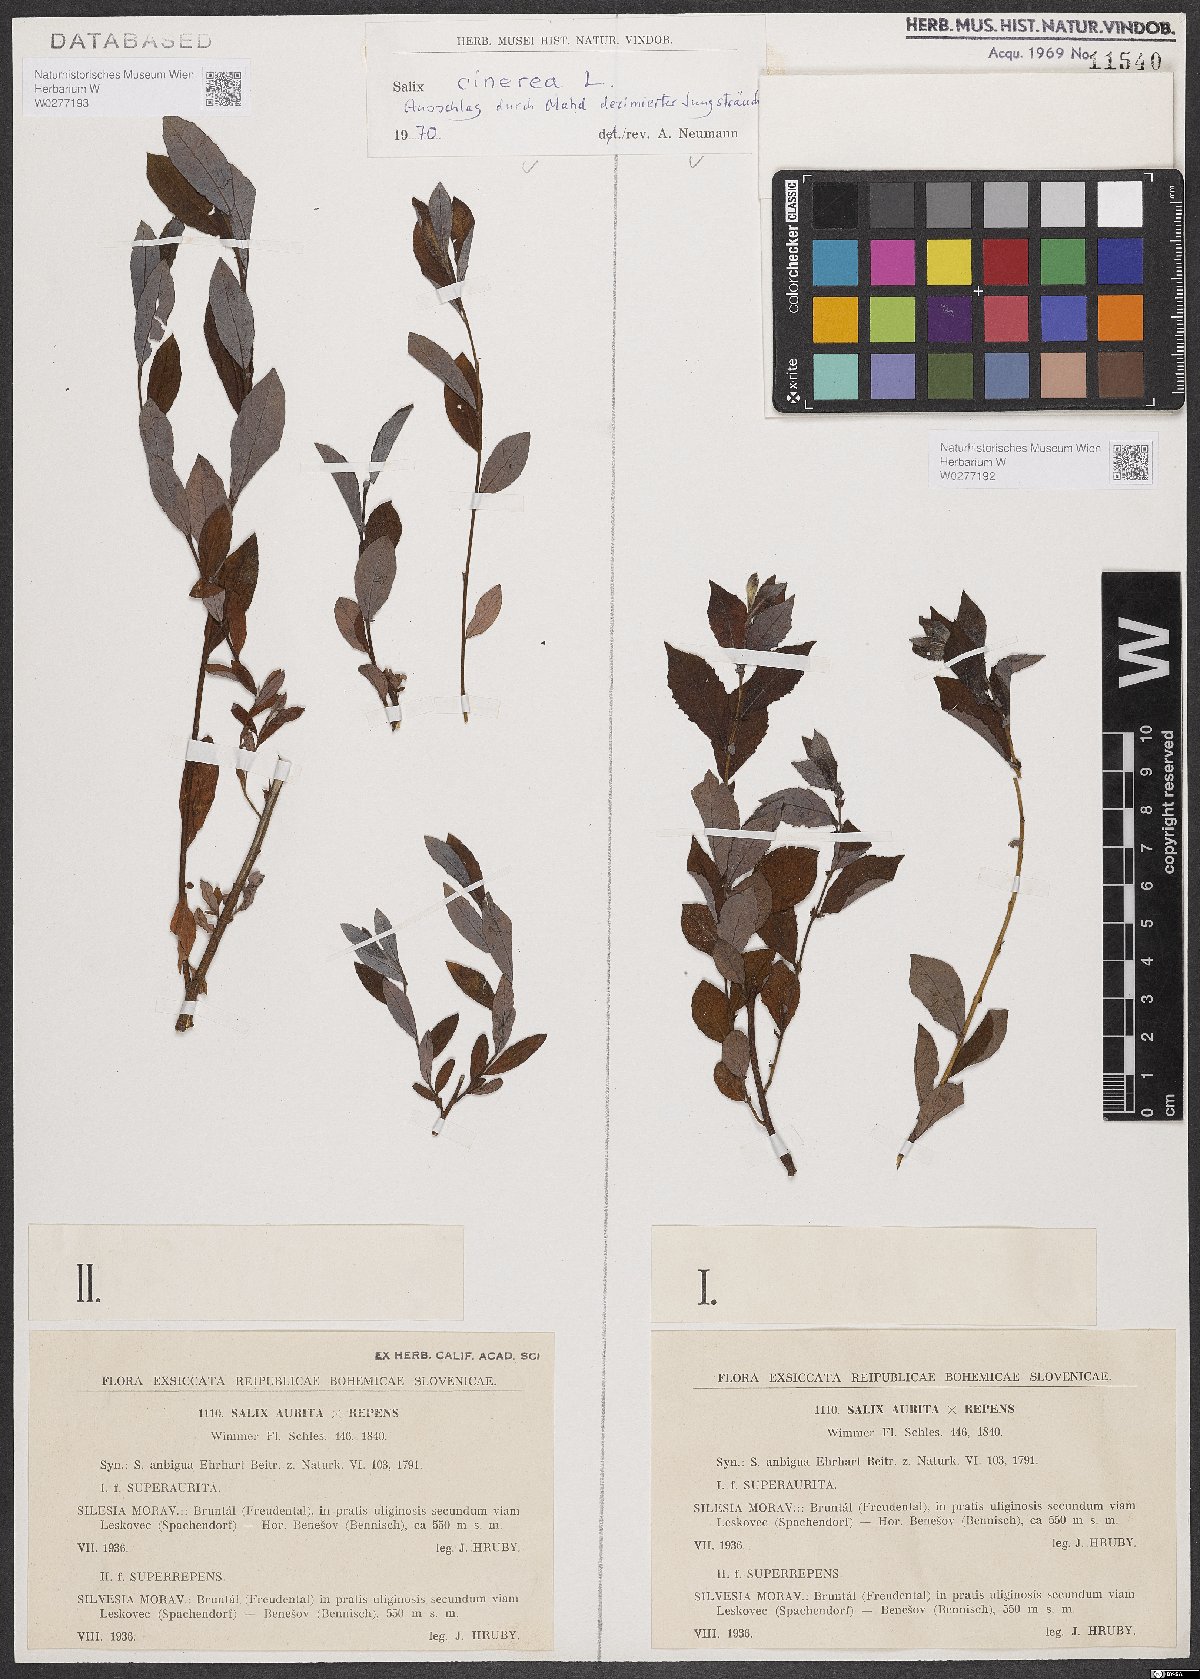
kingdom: Plantae
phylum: Tracheophyta
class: Magnoliopsida
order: Malpighiales
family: Salicaceae
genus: Salix
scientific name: Salix cinerea
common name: Common sallow
